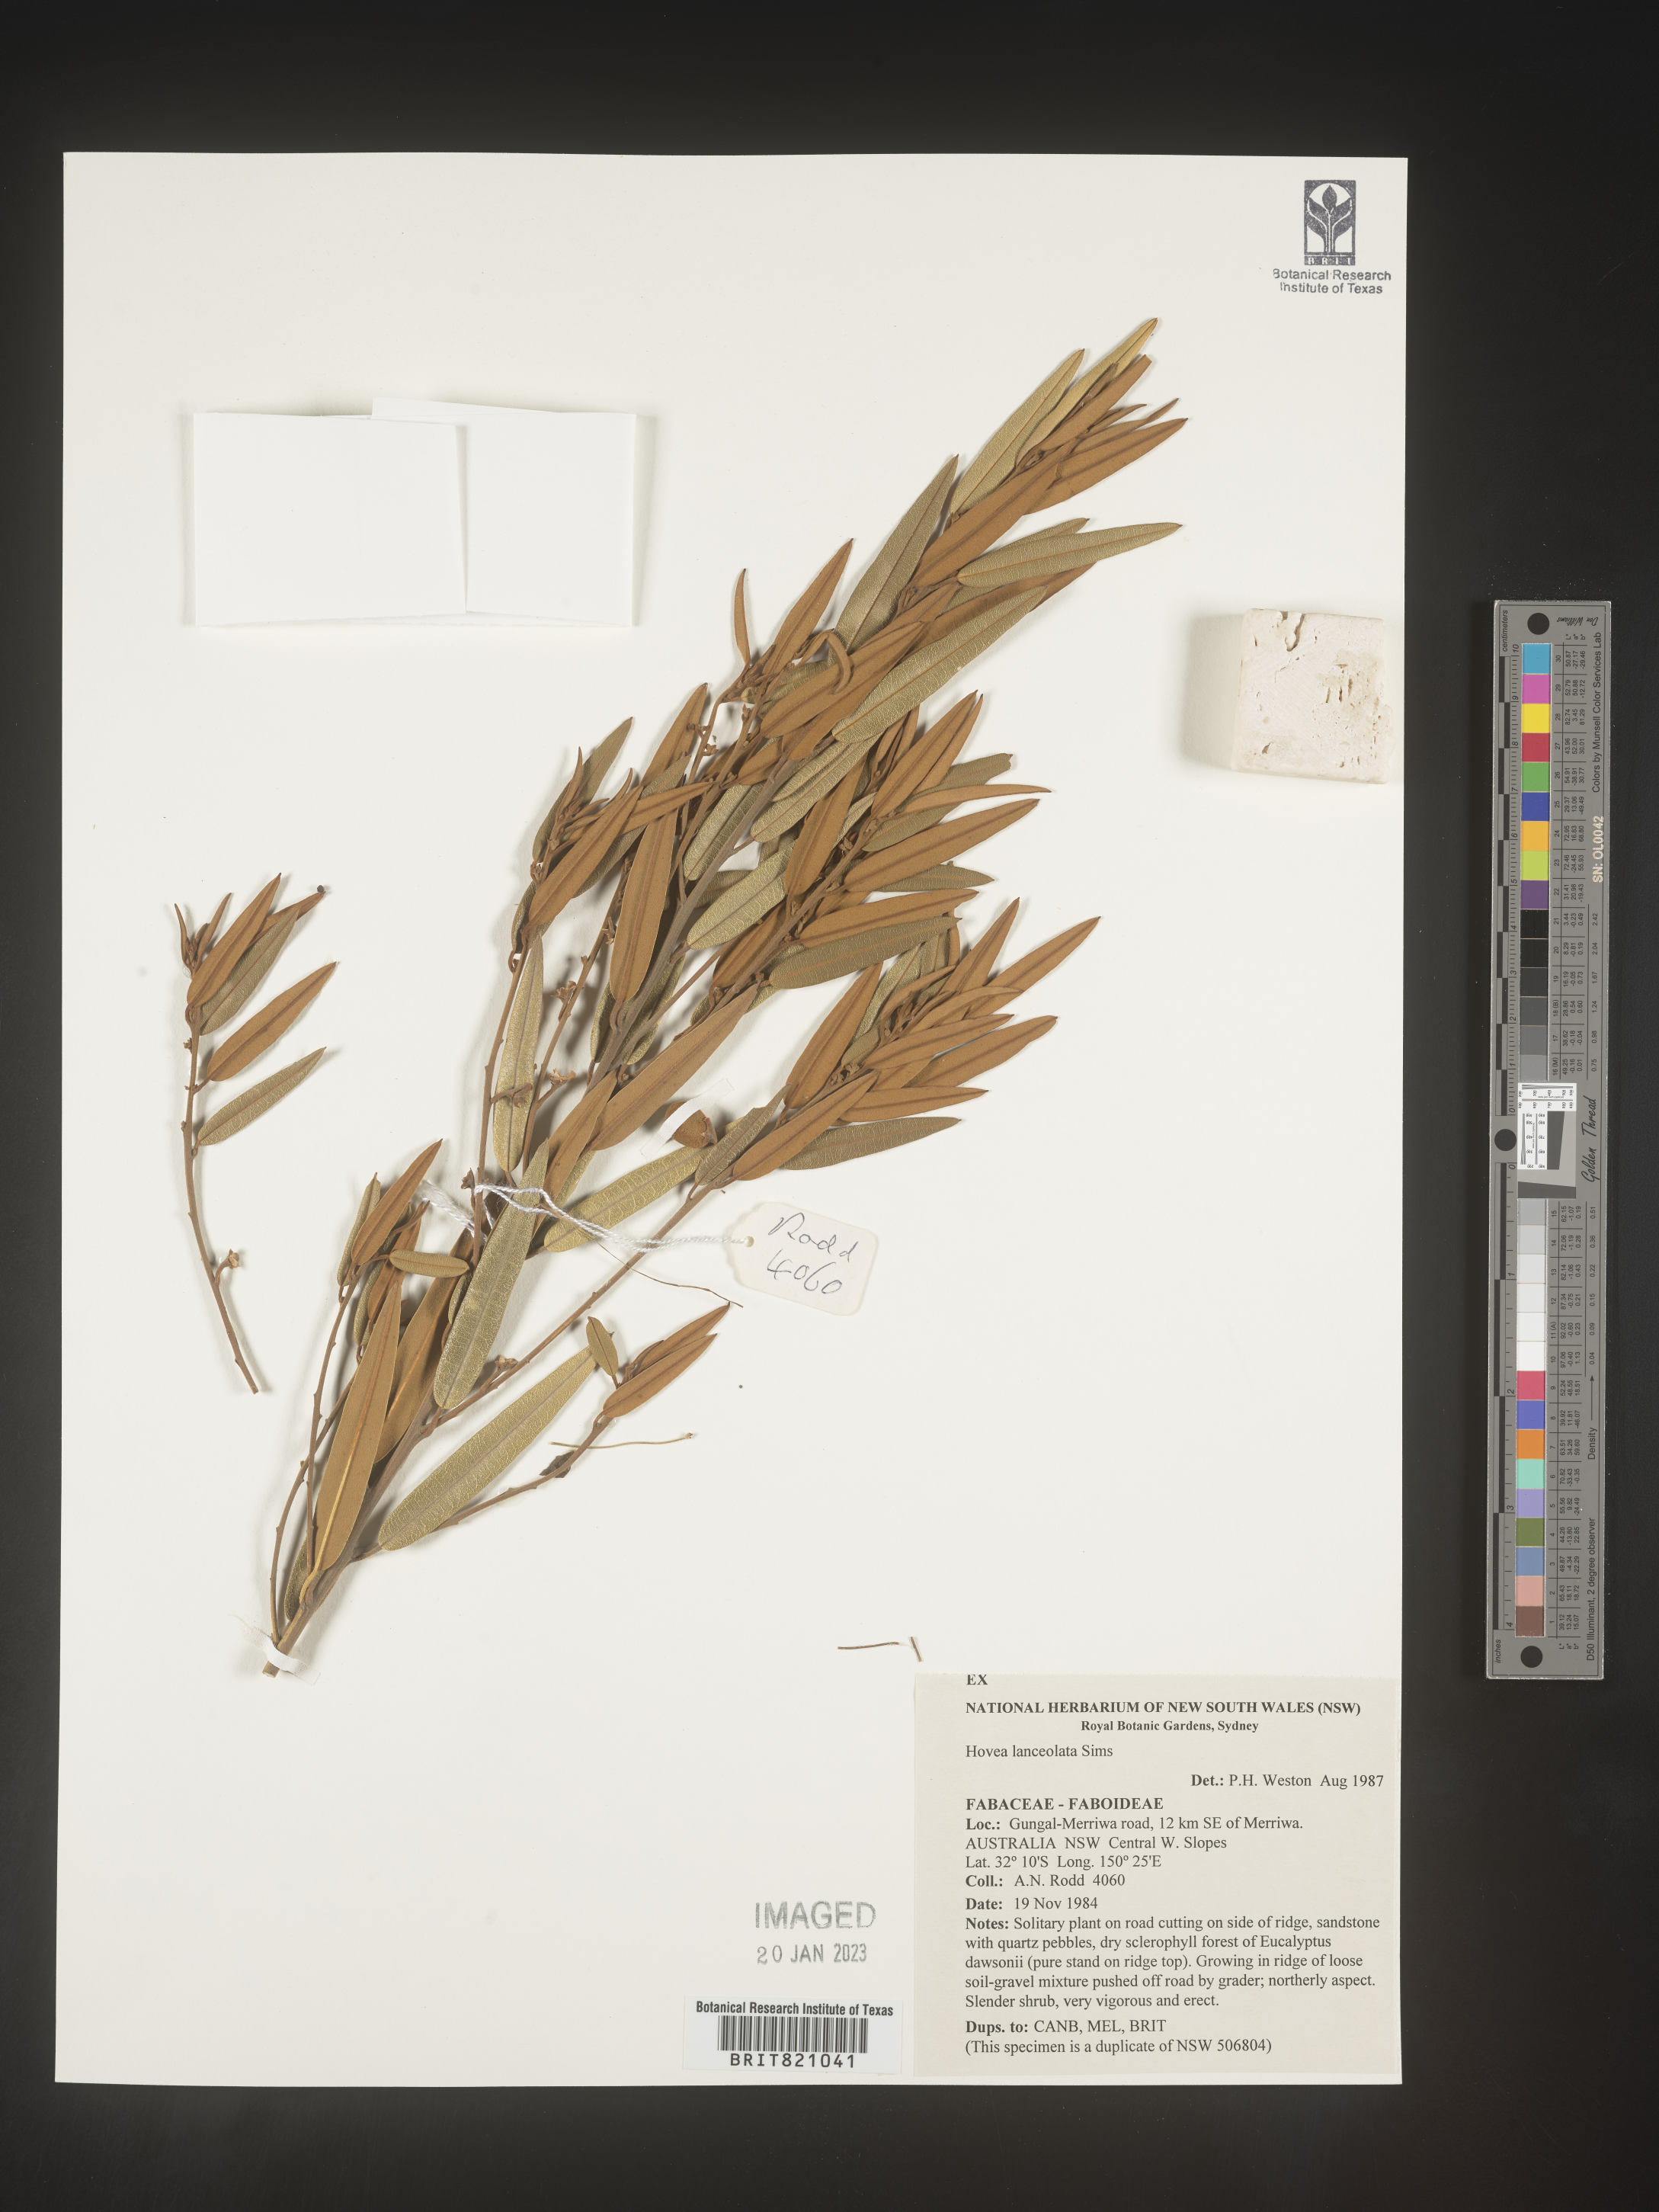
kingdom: Plantae
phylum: Tracheophyta
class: Magnoliopsida
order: Fabales
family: Fabaceae
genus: Hovea
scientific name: Hovea
